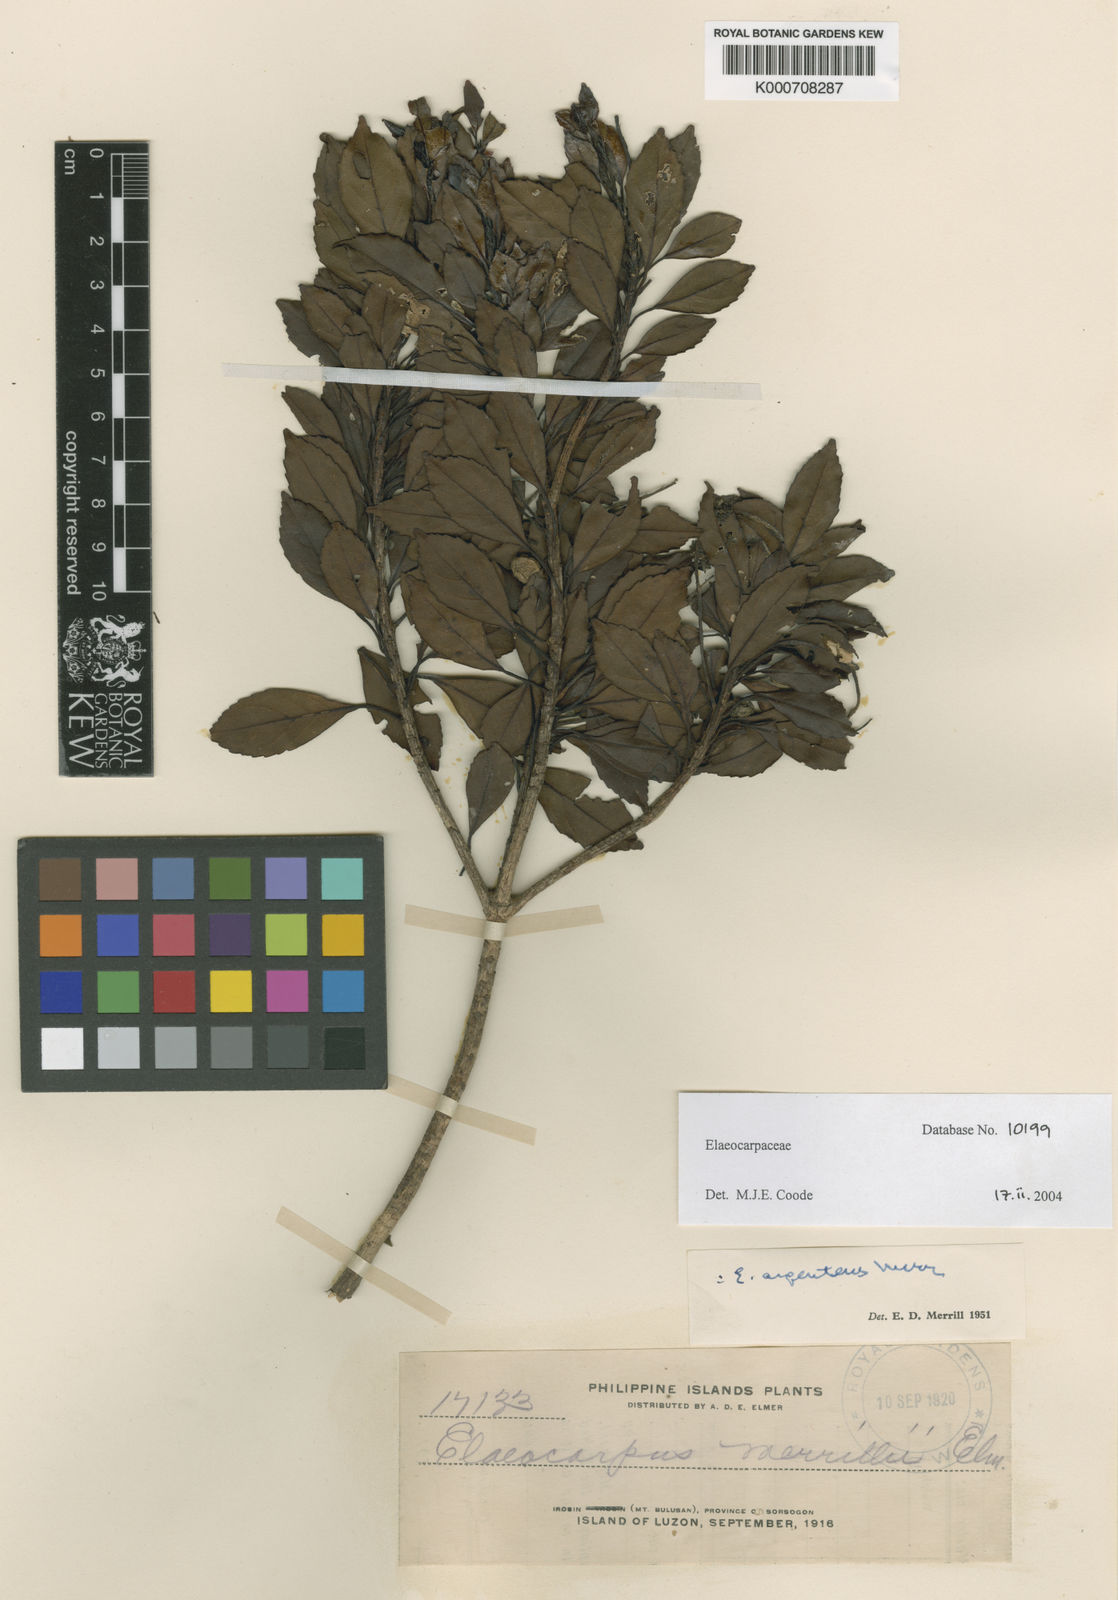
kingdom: Plantae
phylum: Tracheophyta
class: Magnoliopsida
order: Oxalidales
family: Elaeocarpaceae
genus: Elaeocarpus
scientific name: Elaeocarpus argenteus
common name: Flowering plant
